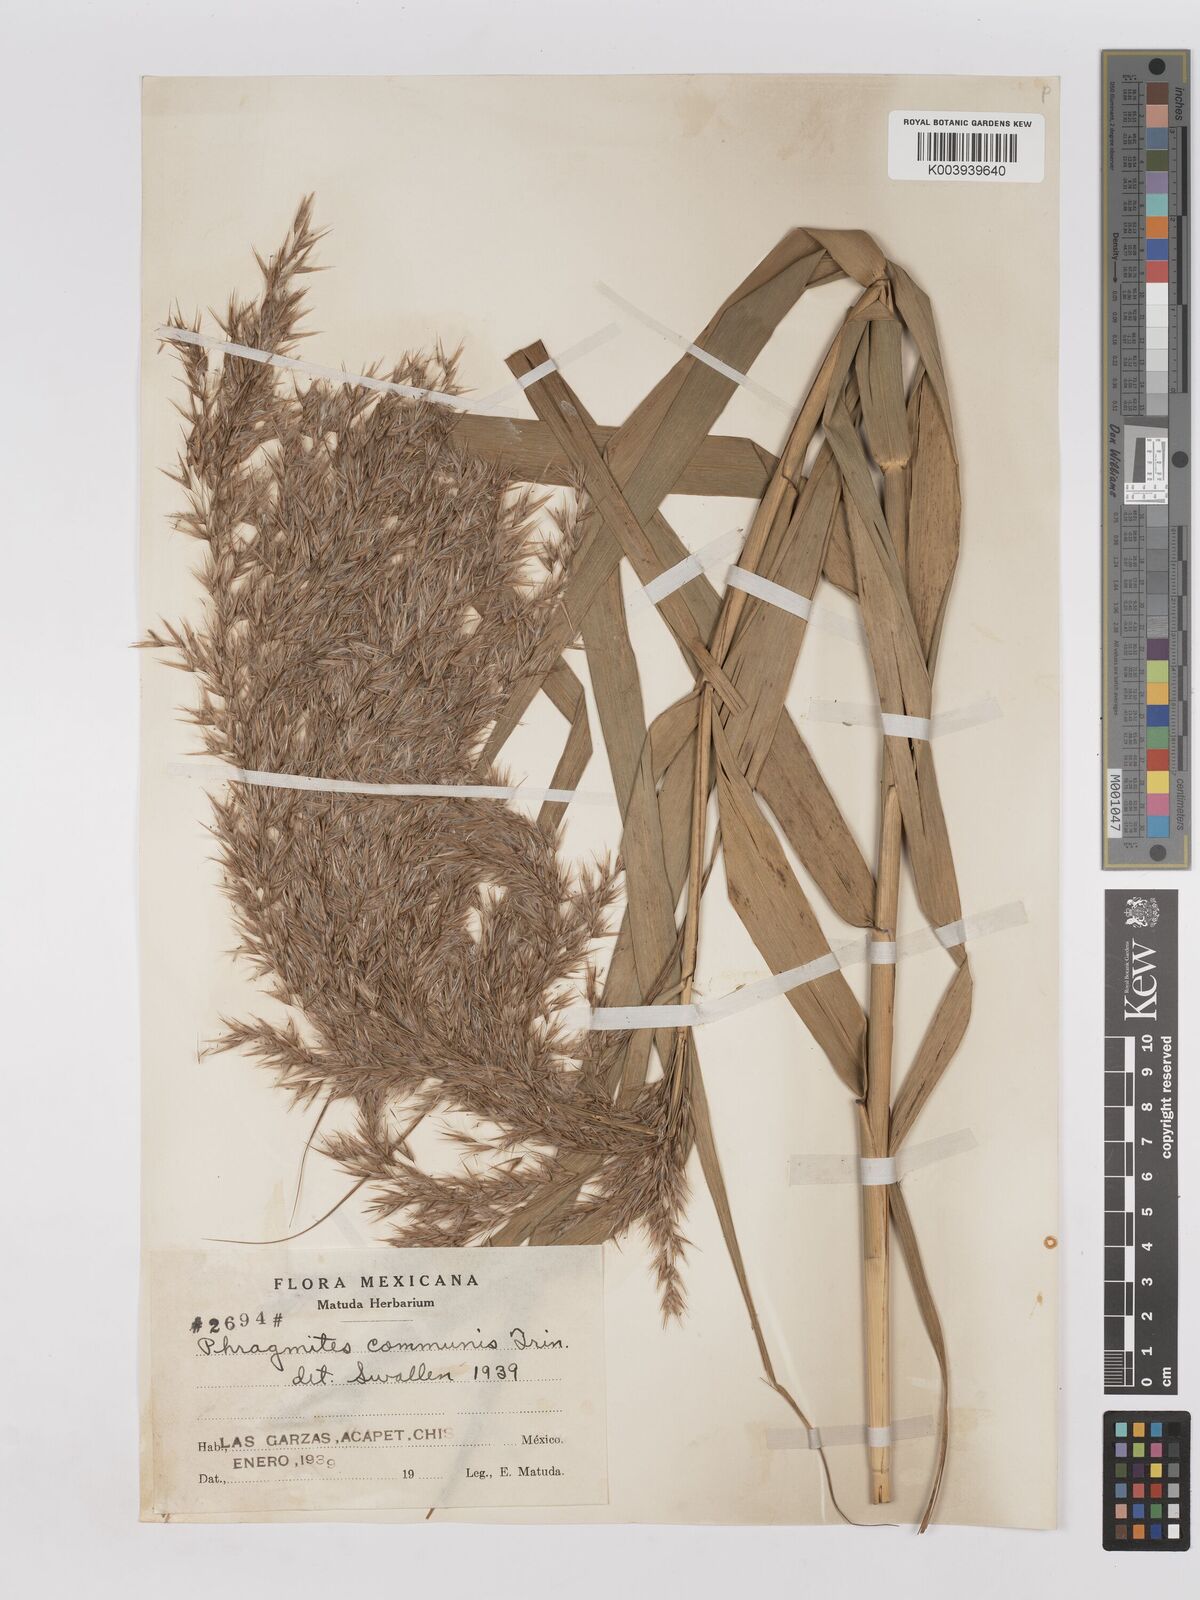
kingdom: Plantae
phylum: Tracheophyta
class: Liliopsida
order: Poales
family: Poaceae
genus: Phragmites
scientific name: Phragmites australis
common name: Common reed
